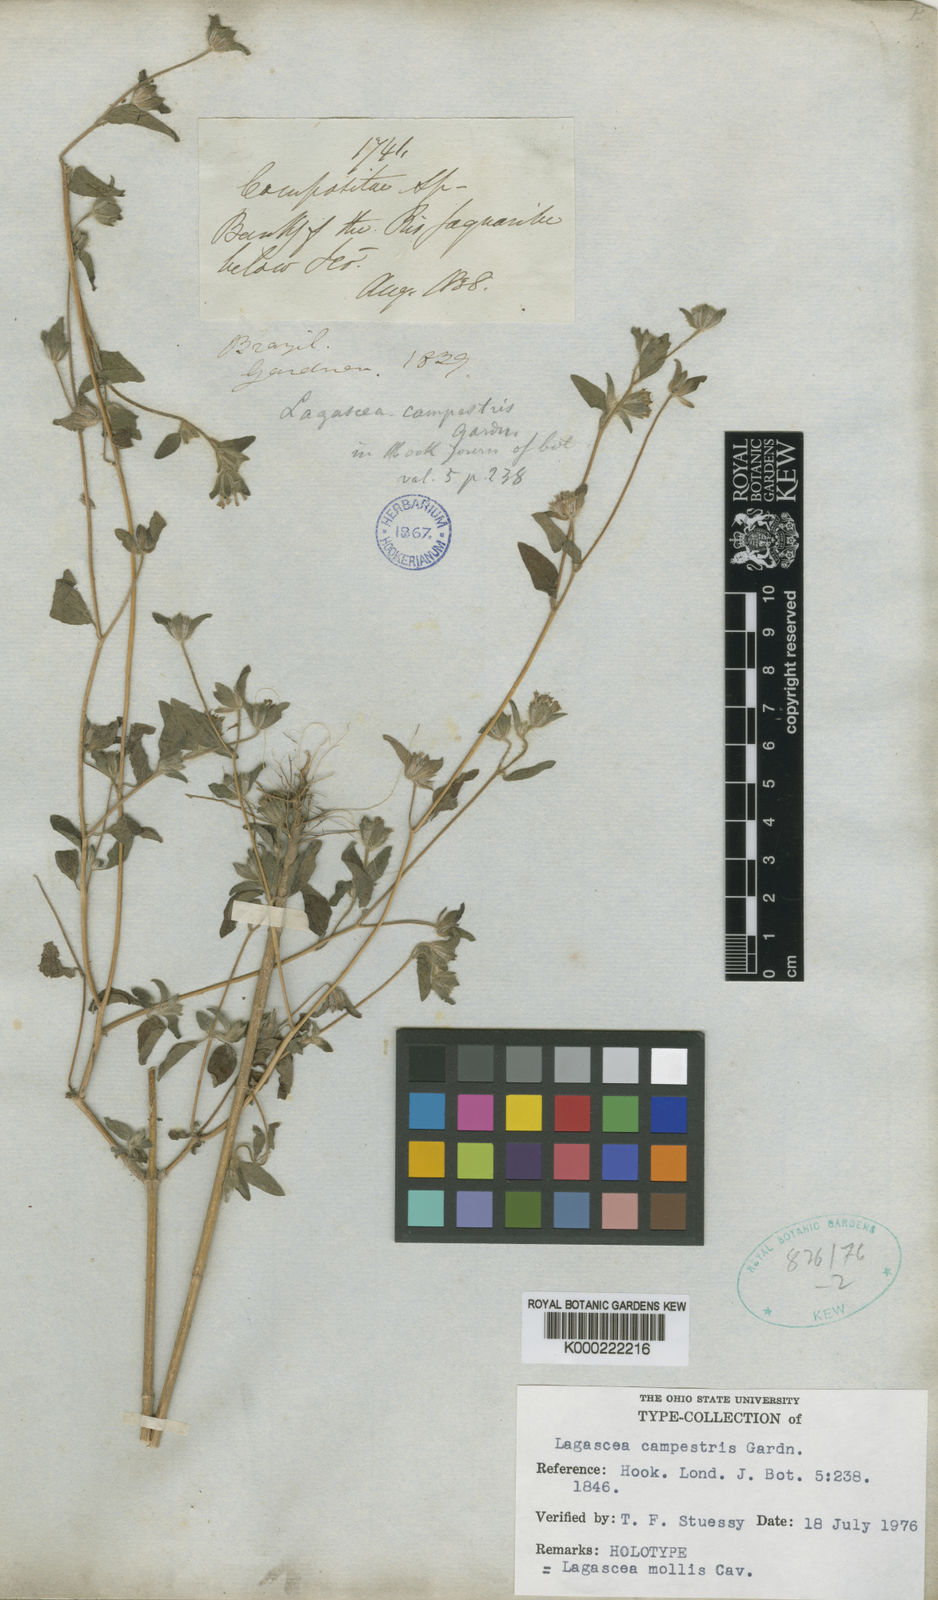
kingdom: Plantae
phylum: Tracheophyta
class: Magnoliopsida
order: Asterales
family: Asteraceae
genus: Lagascea
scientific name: Lagascea mollis
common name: Silkleaf
